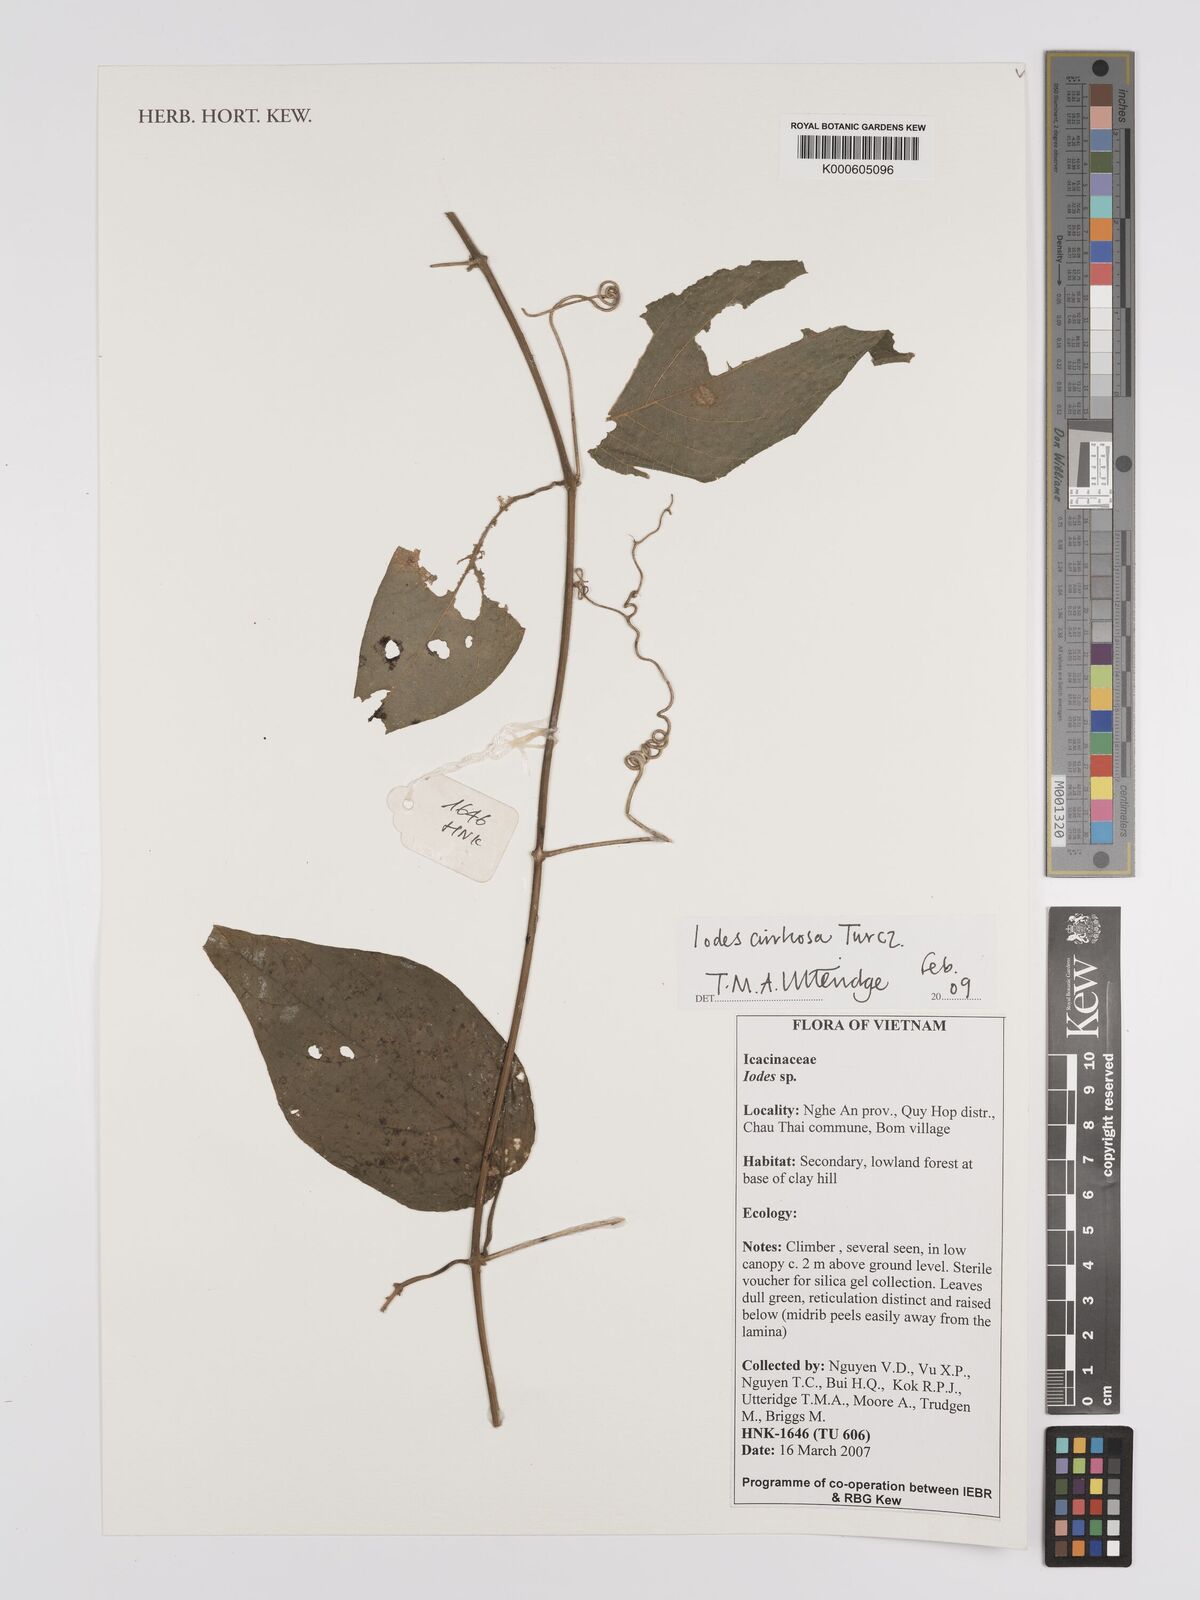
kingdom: Plantae
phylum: Tracheophyta
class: Magnoliopsida
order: Icacinales
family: Icacinaceae
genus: Iodes
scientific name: Iodes cirrhosa
